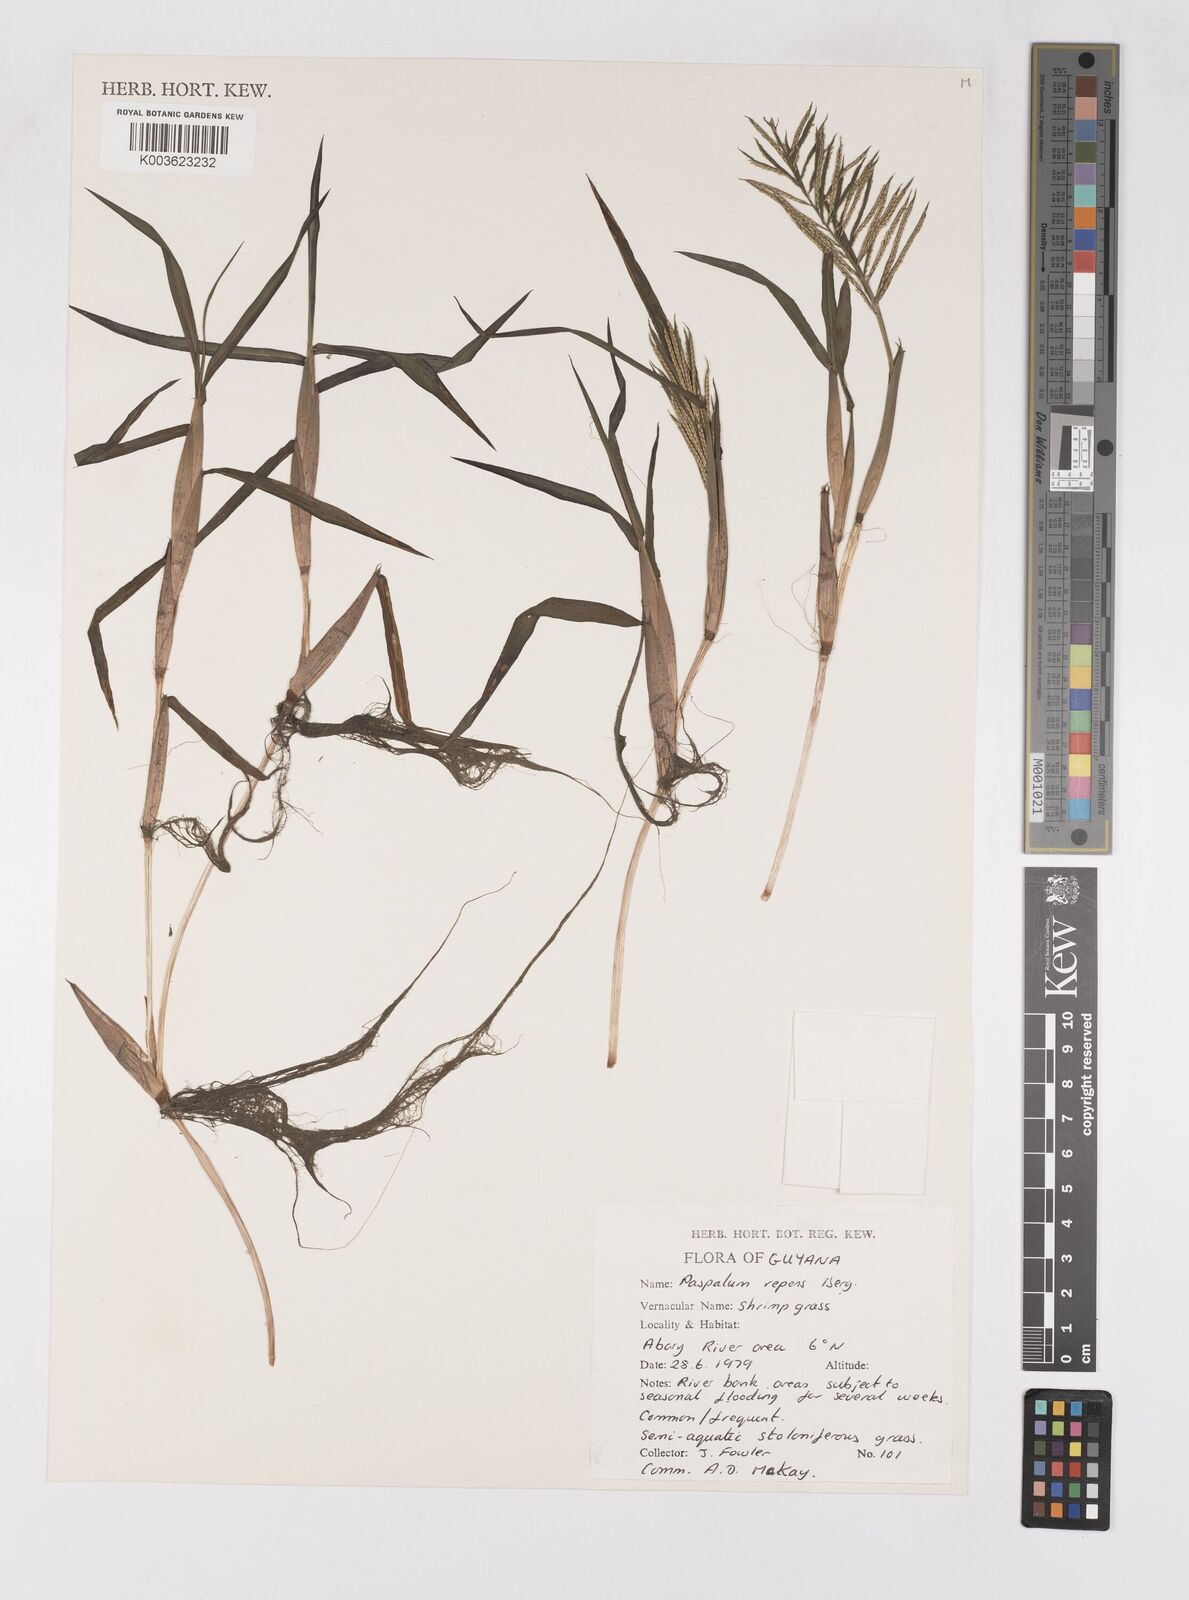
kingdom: Plantae
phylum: Tracheophyta
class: Liliopsida
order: Poales
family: Poaceae
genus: Paspalum
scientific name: Paspalum repens
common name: Water paspalum
